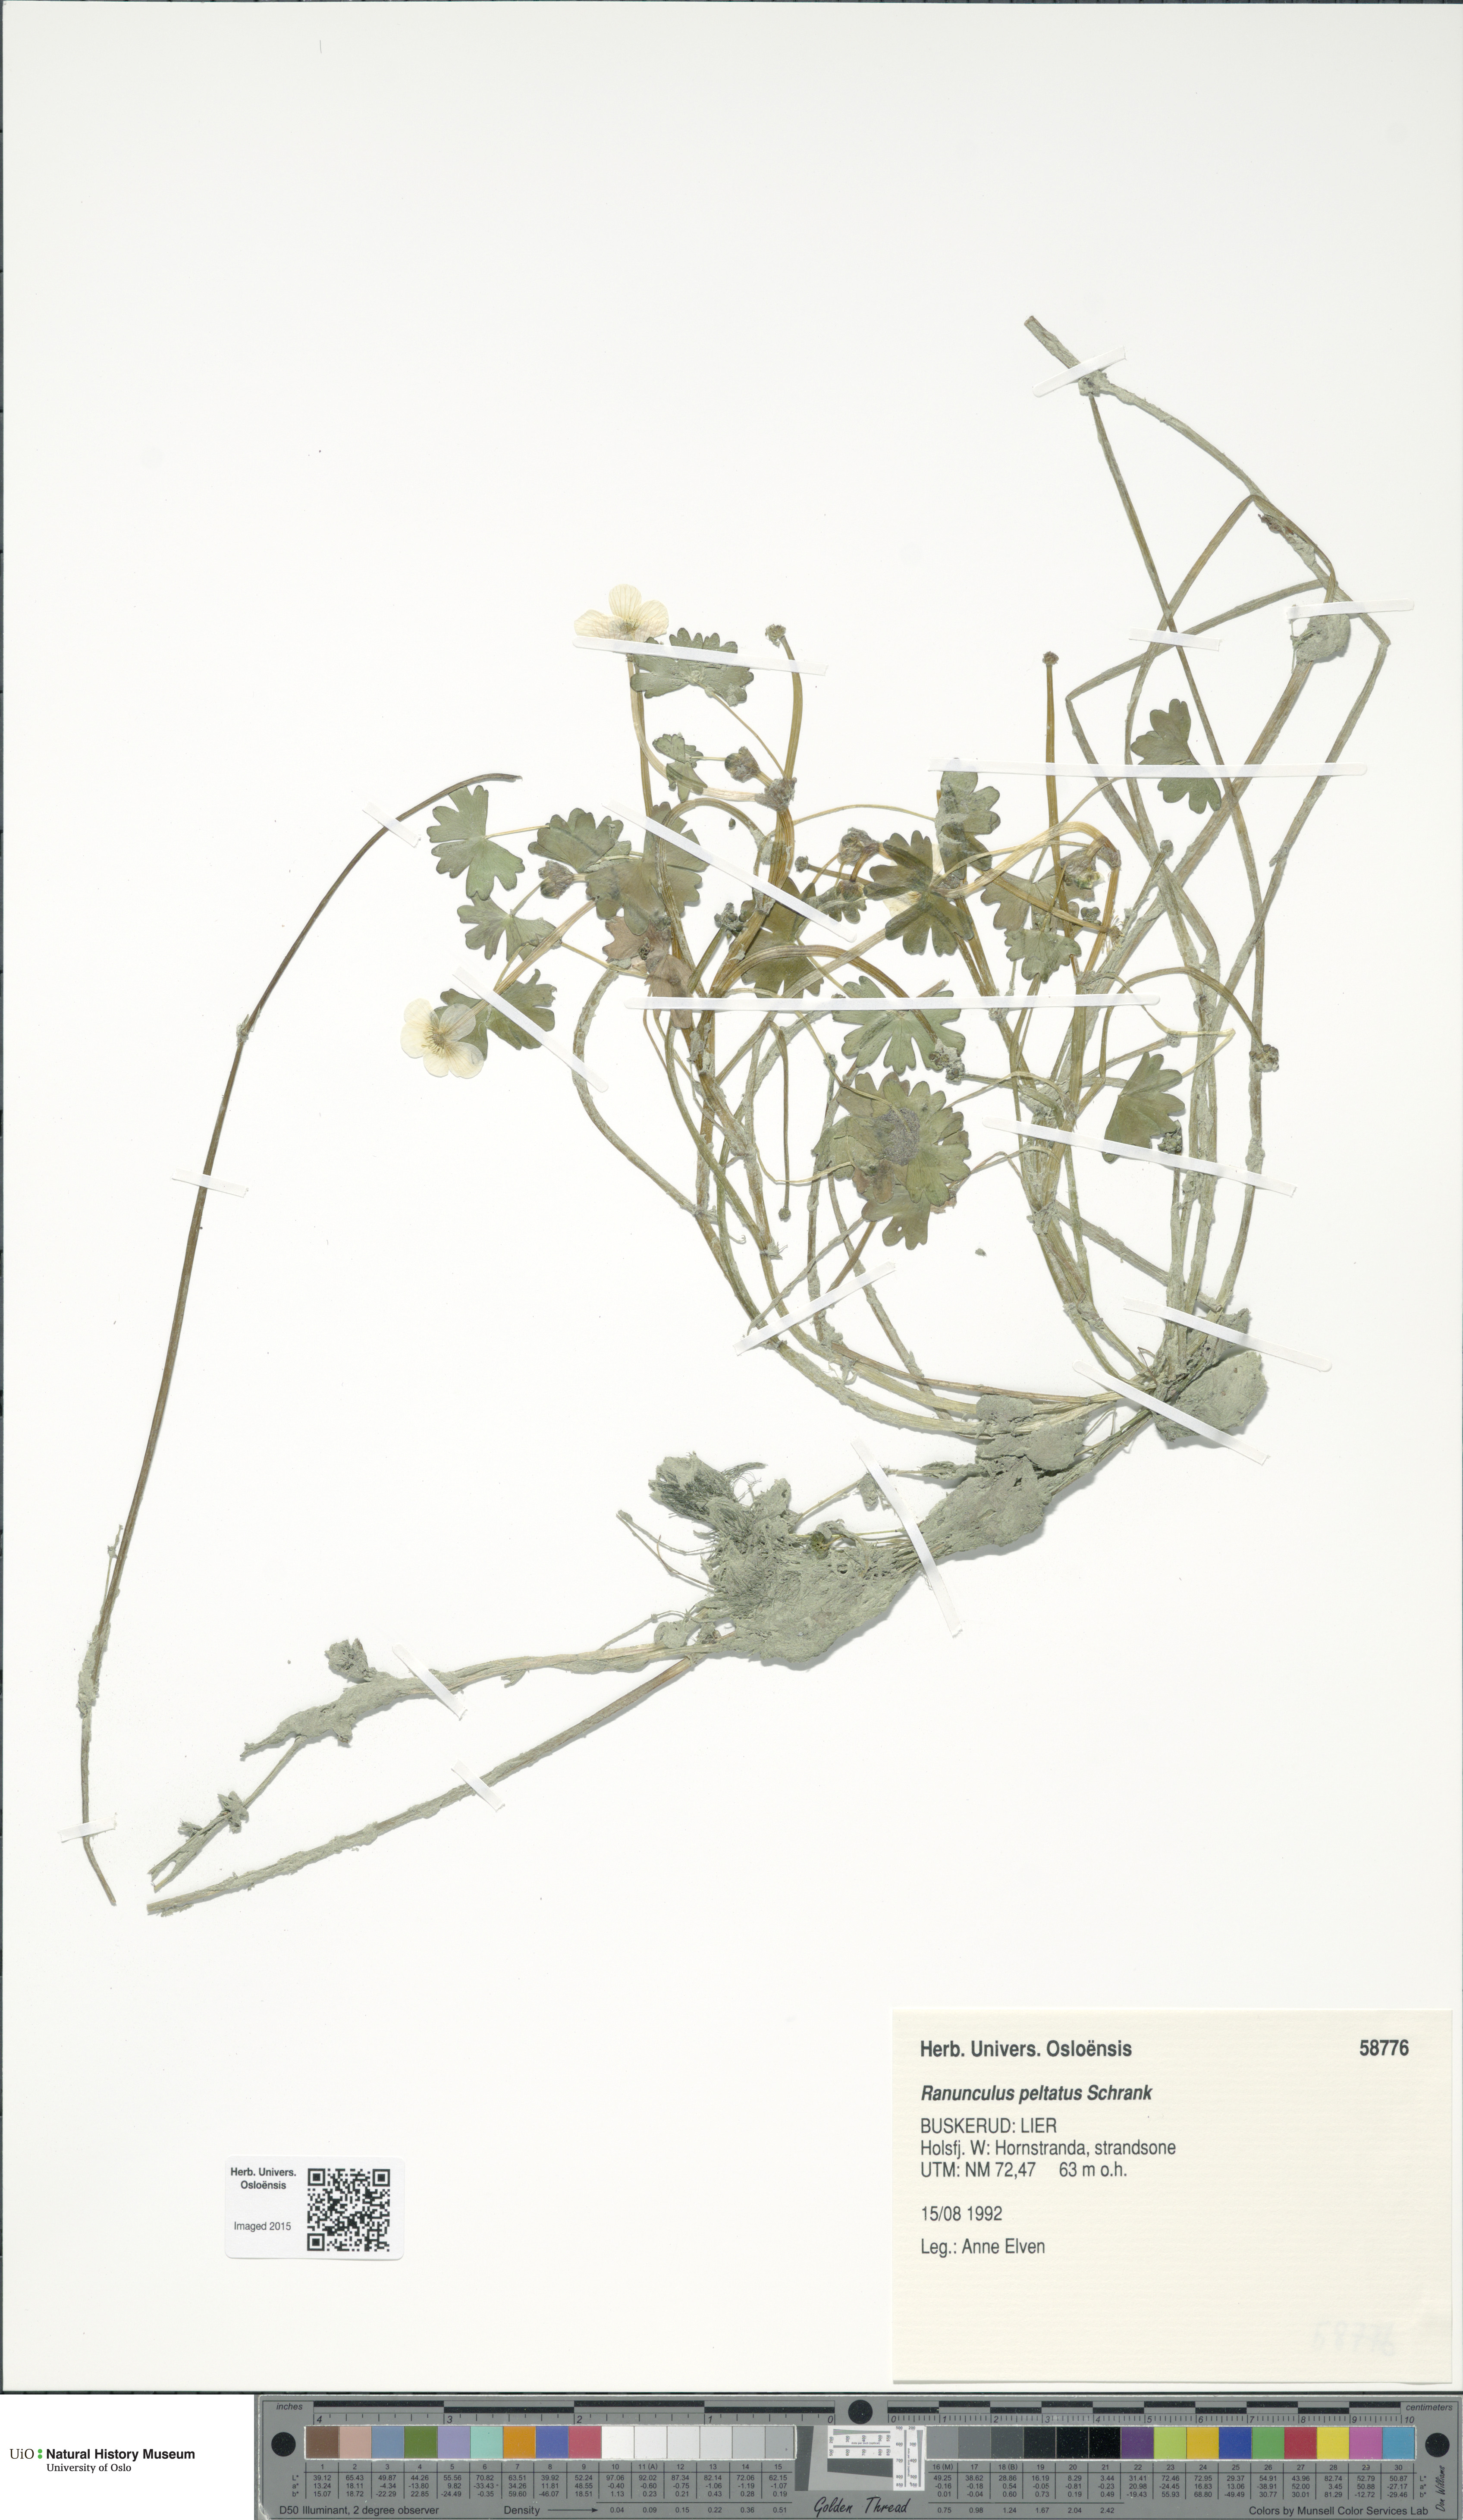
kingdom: Plantae
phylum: Tracheophyta
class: Magnoliopsida
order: Ranunculales
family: Ranunculaceae
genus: Ranunculus
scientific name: Ranunculus peltatus
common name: Pond water-crowfoot
